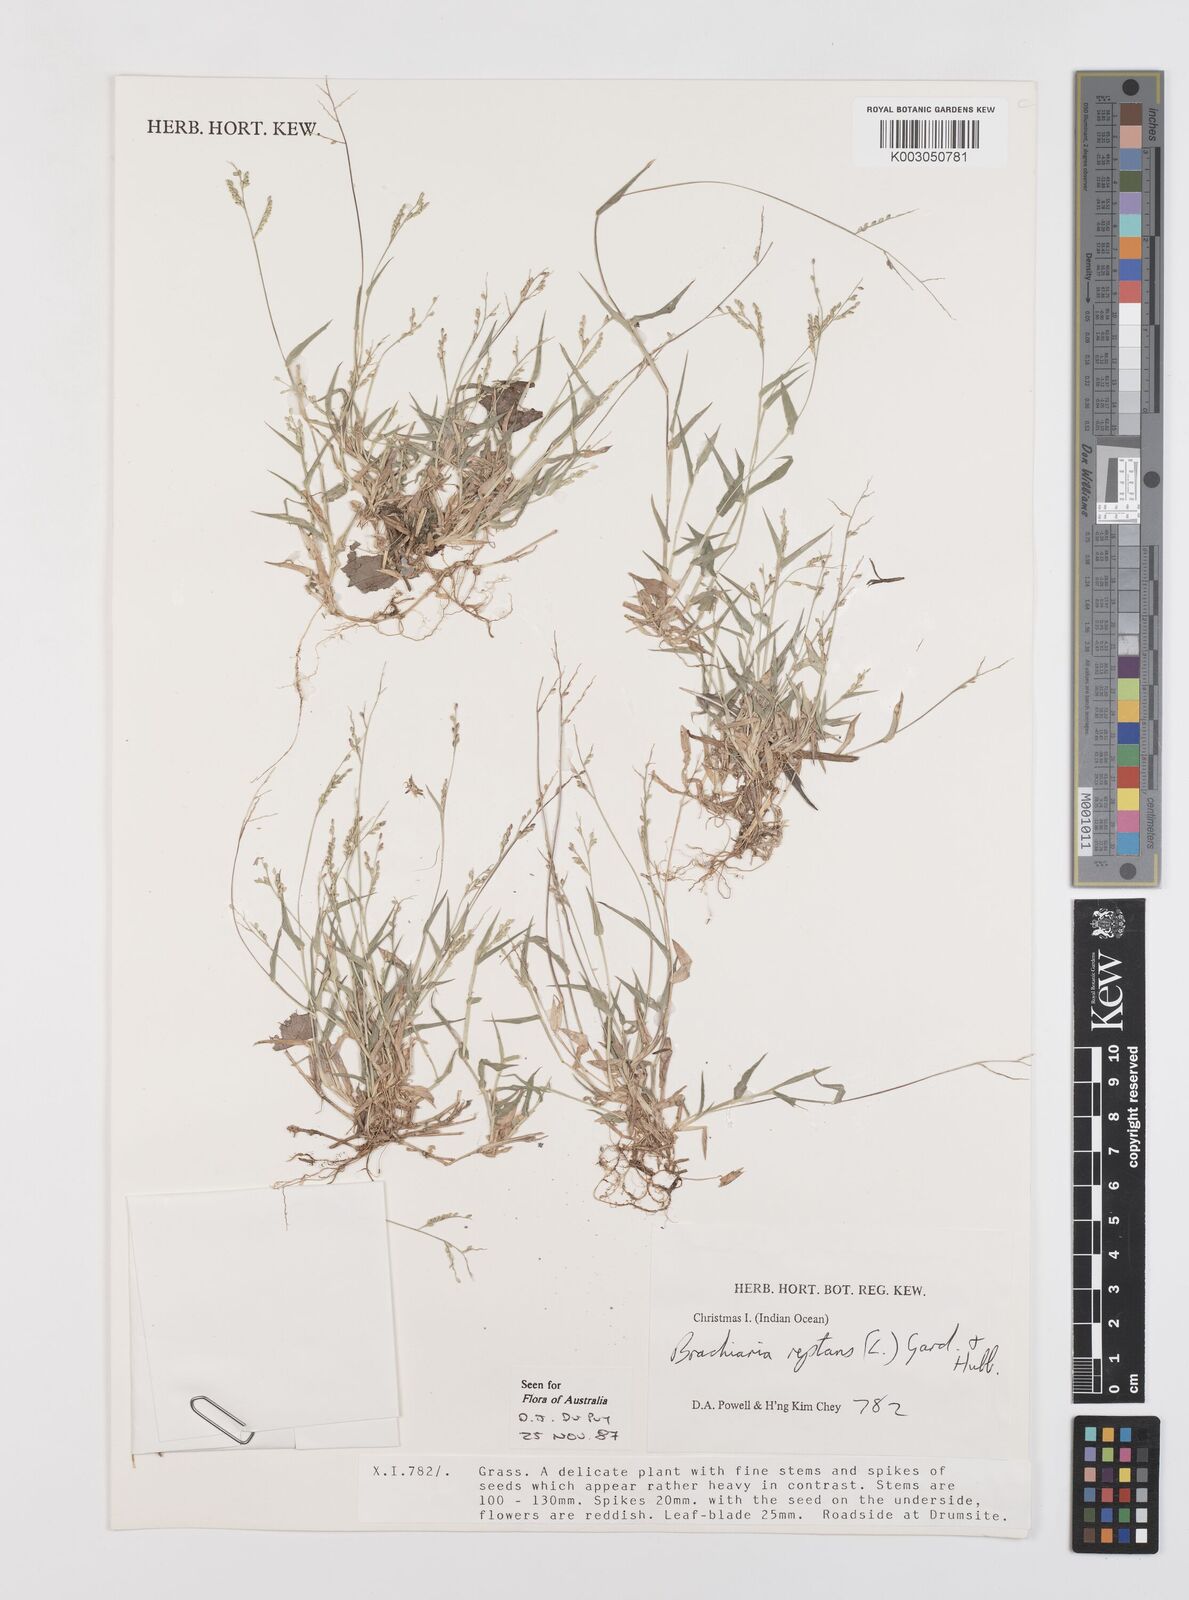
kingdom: Plantae
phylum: Tracheophyta
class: Liliopsida
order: Poales
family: Poaceae
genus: Urochloa
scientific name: Urochloa reptans
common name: Sprawling signalgrass
